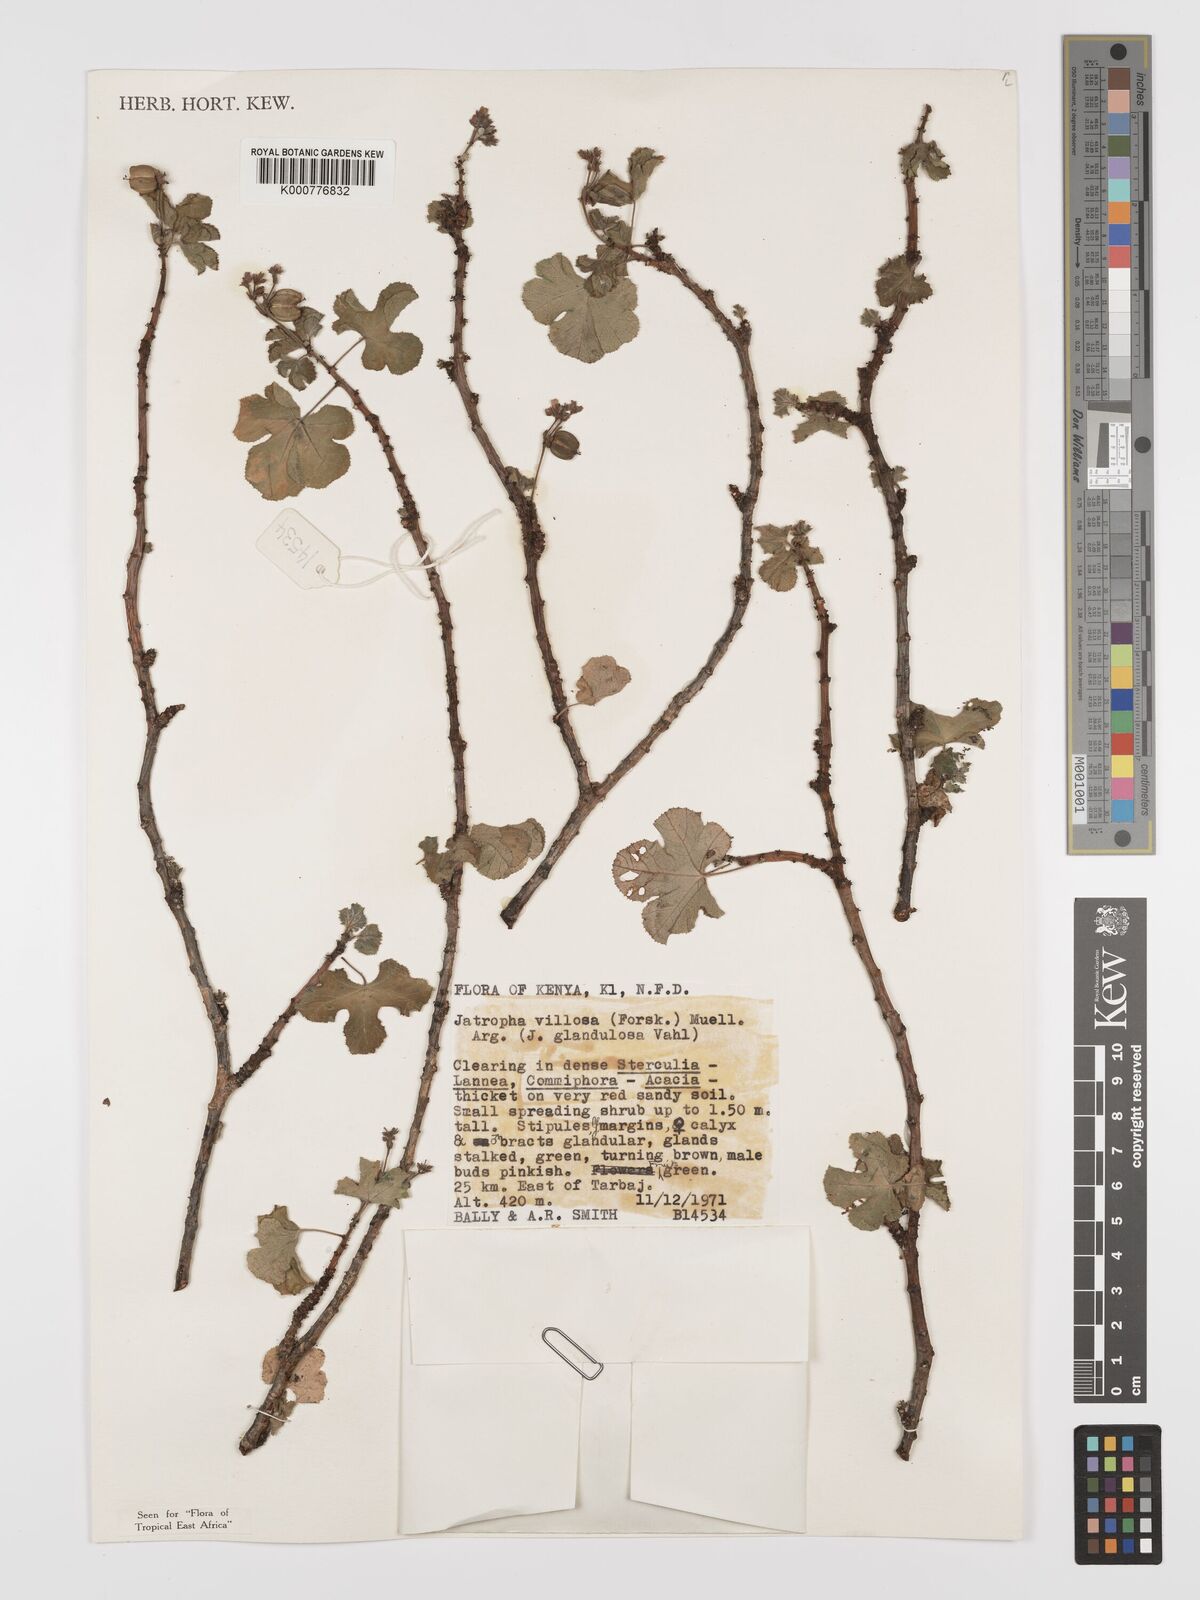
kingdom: Plantae
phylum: Tracheophyta
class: Magnoliopsida
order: Malpighiales
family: Euphorbiaceae
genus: Jatropha
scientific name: Jatropha pelargoniifolia
